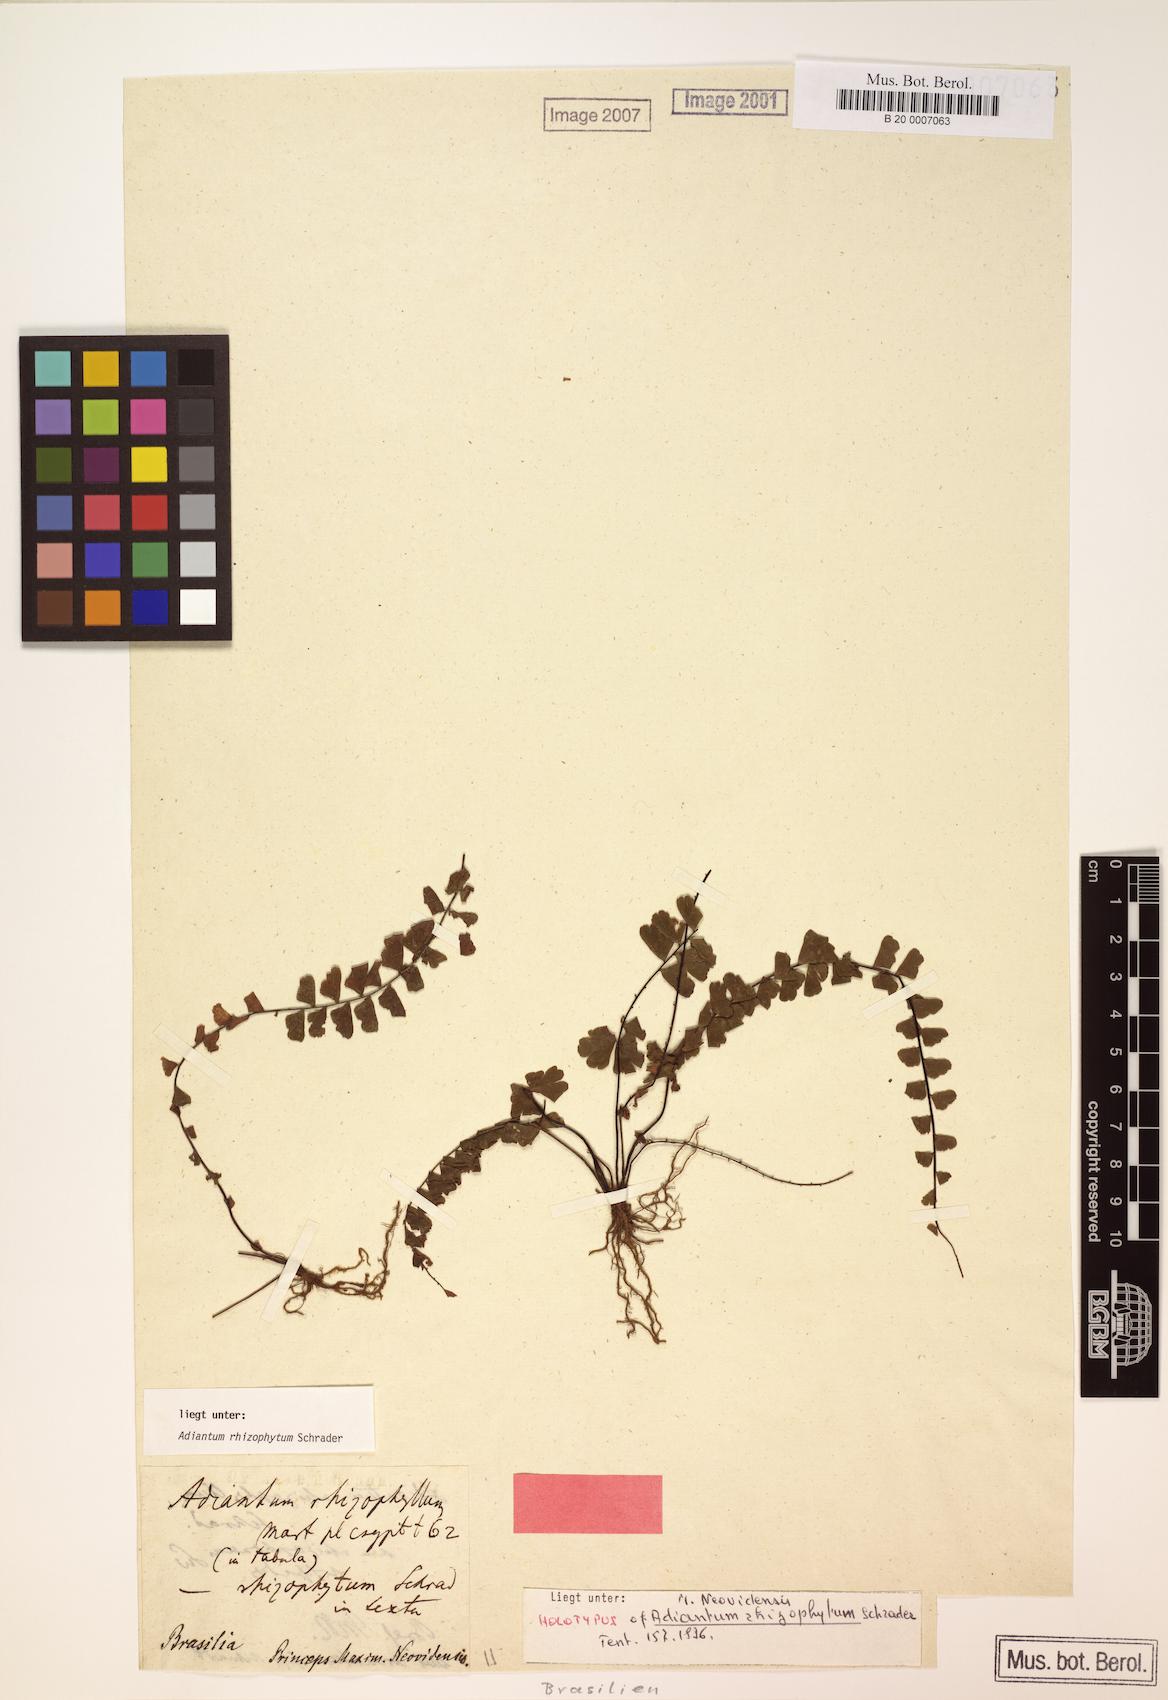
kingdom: Plantae
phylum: Tracheophyta
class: Polypodiopsida
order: Polypodiales
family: Pteridaceae
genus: Adiantum
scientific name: Adiantum rhizophytum
